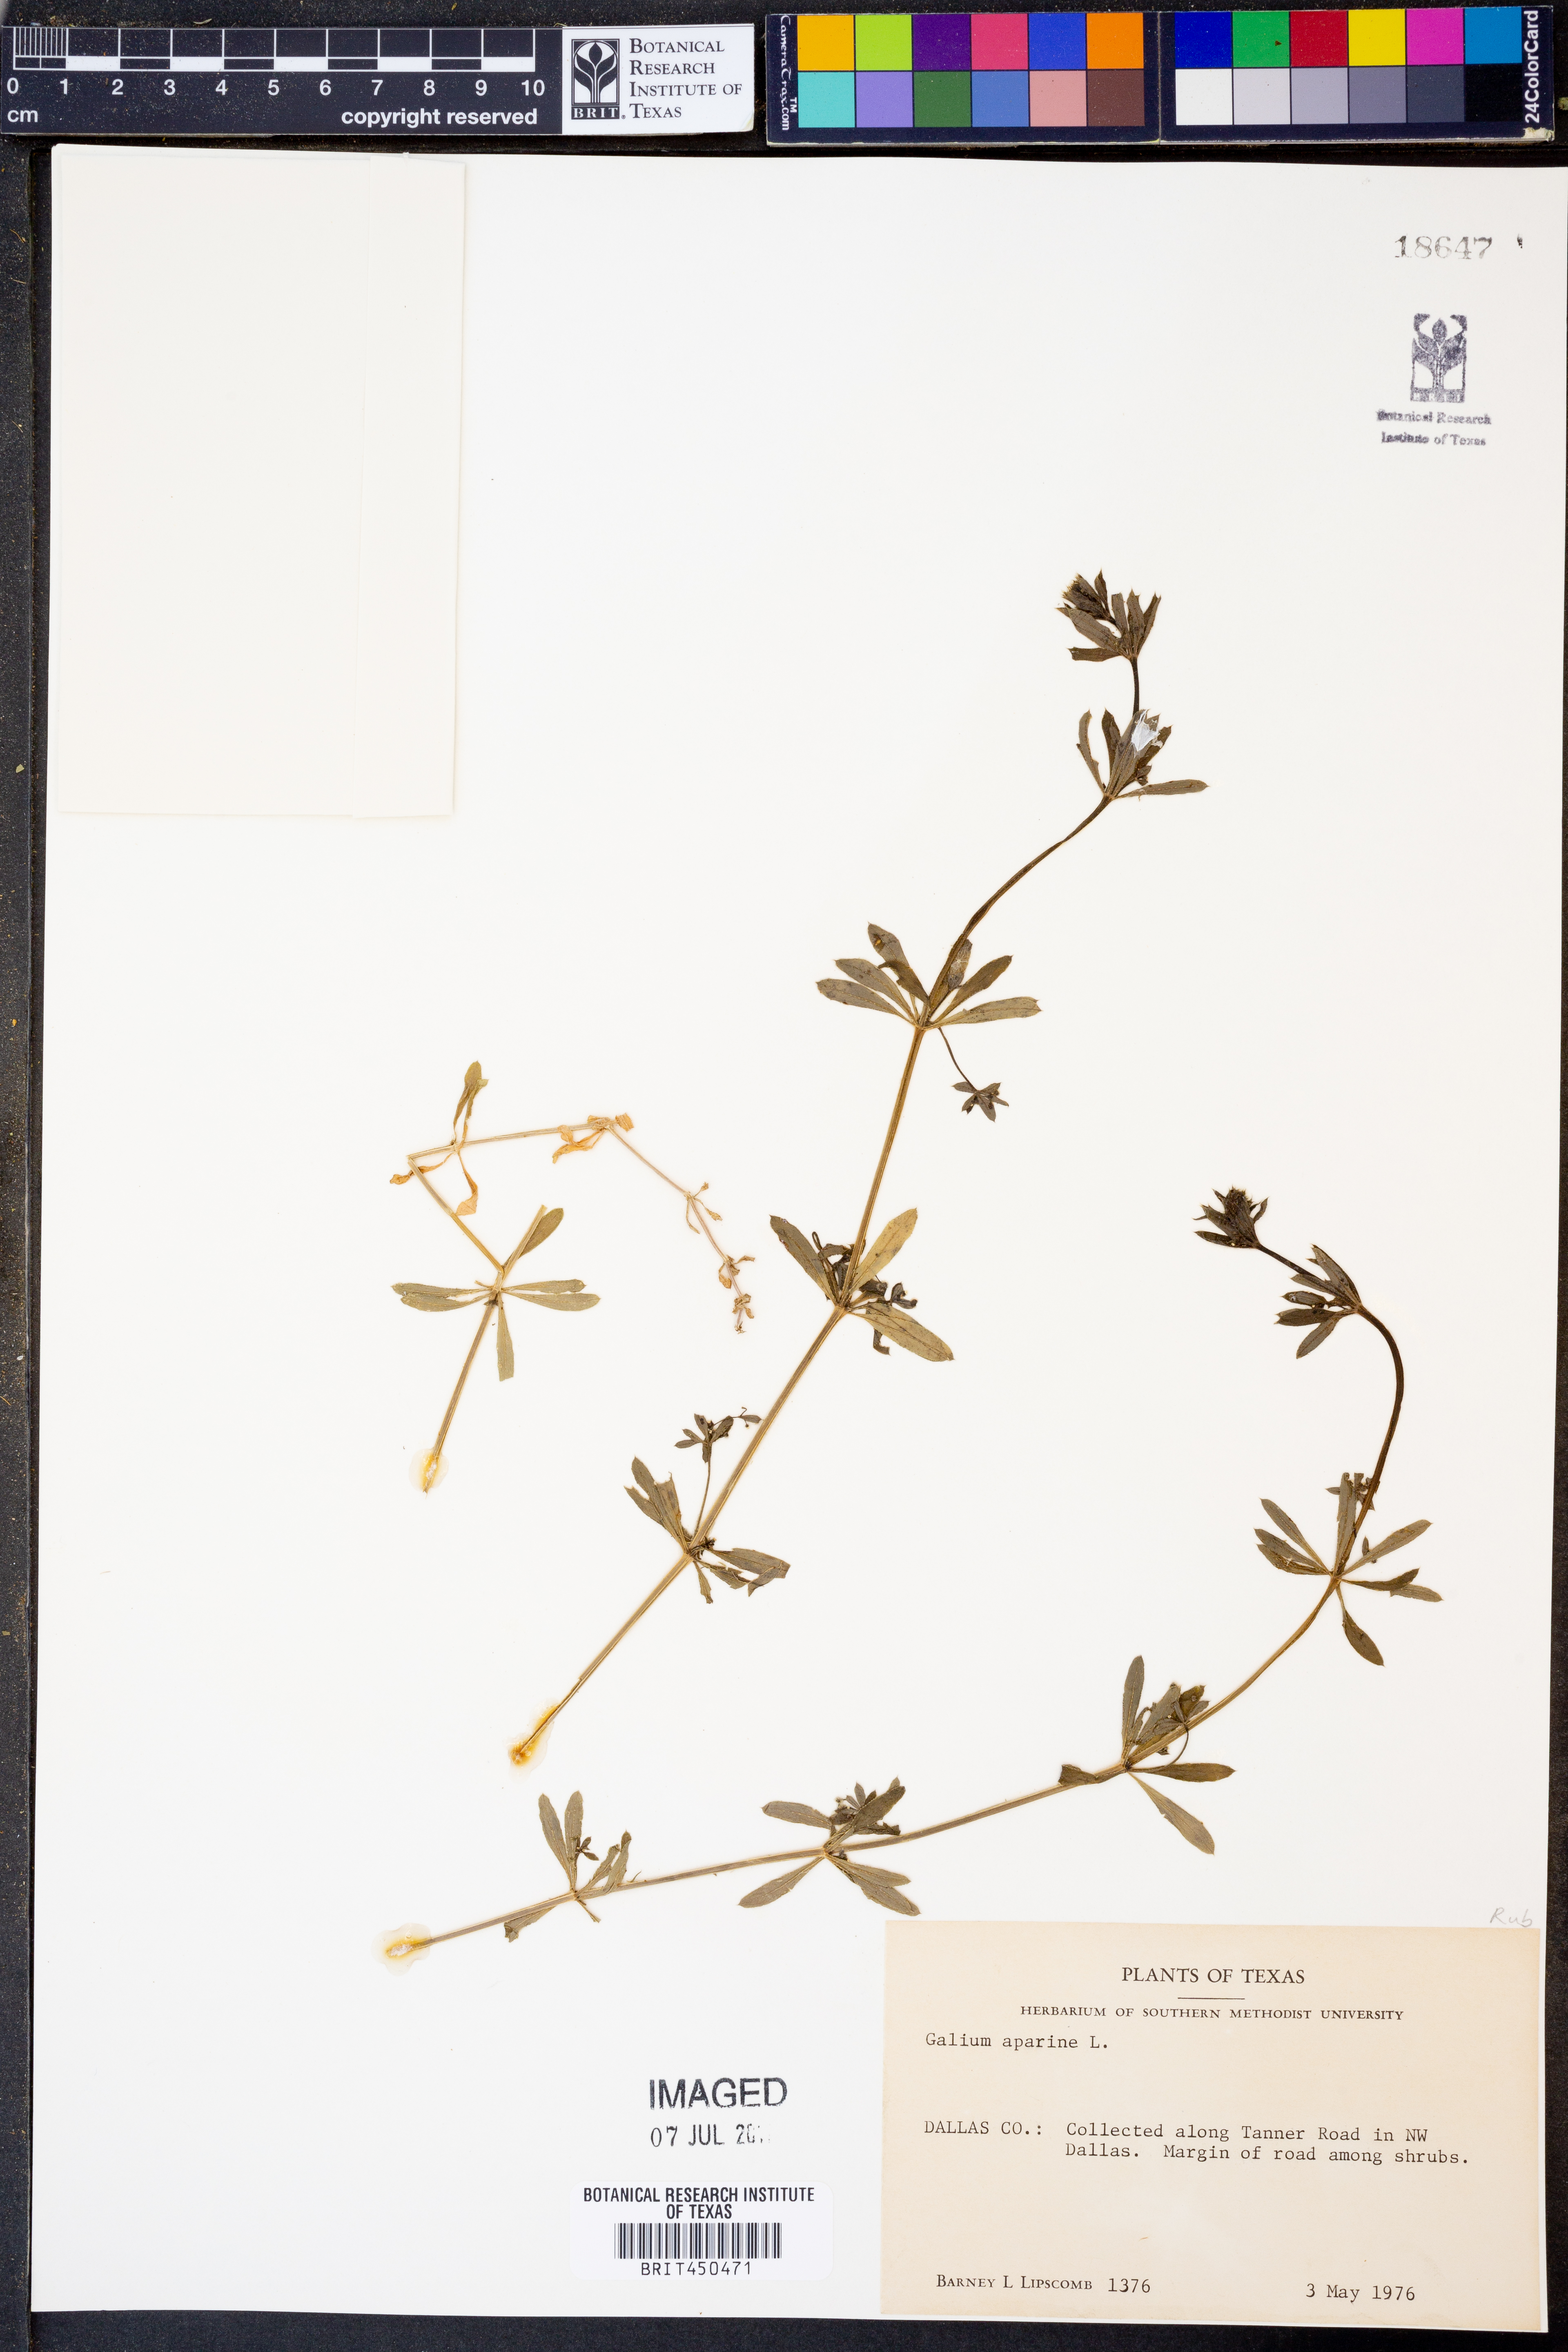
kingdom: Plantae
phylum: Tracheophyta
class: Magnoliopsida
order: Gentianales
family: Rubiaceae
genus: Galium
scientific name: Galium aparine
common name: Cleavers
